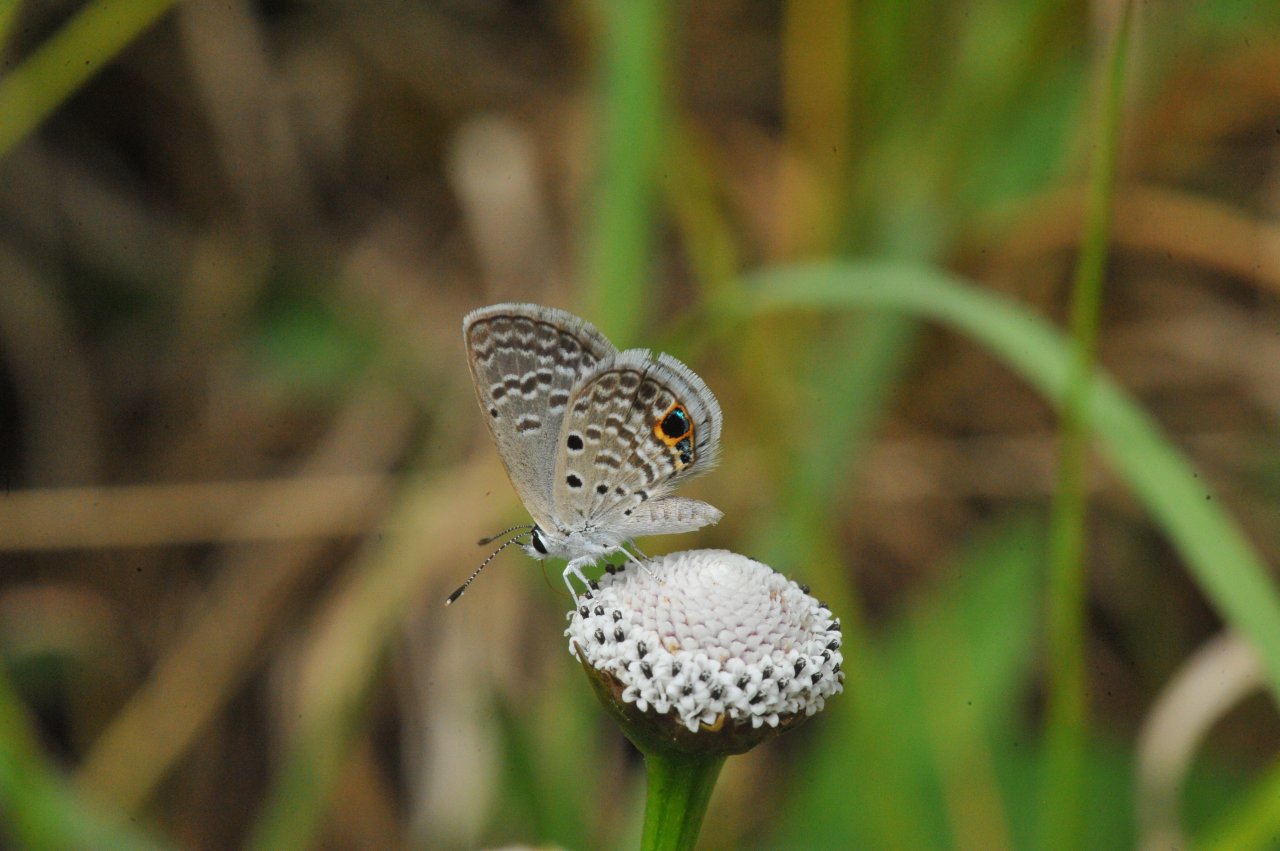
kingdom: Animalia
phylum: Arthropoda
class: Insecta
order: Lepidoptera
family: Lycaenidae
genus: Hemiargus
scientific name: Hemiargus ceraunus
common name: Ceraunus Blue
